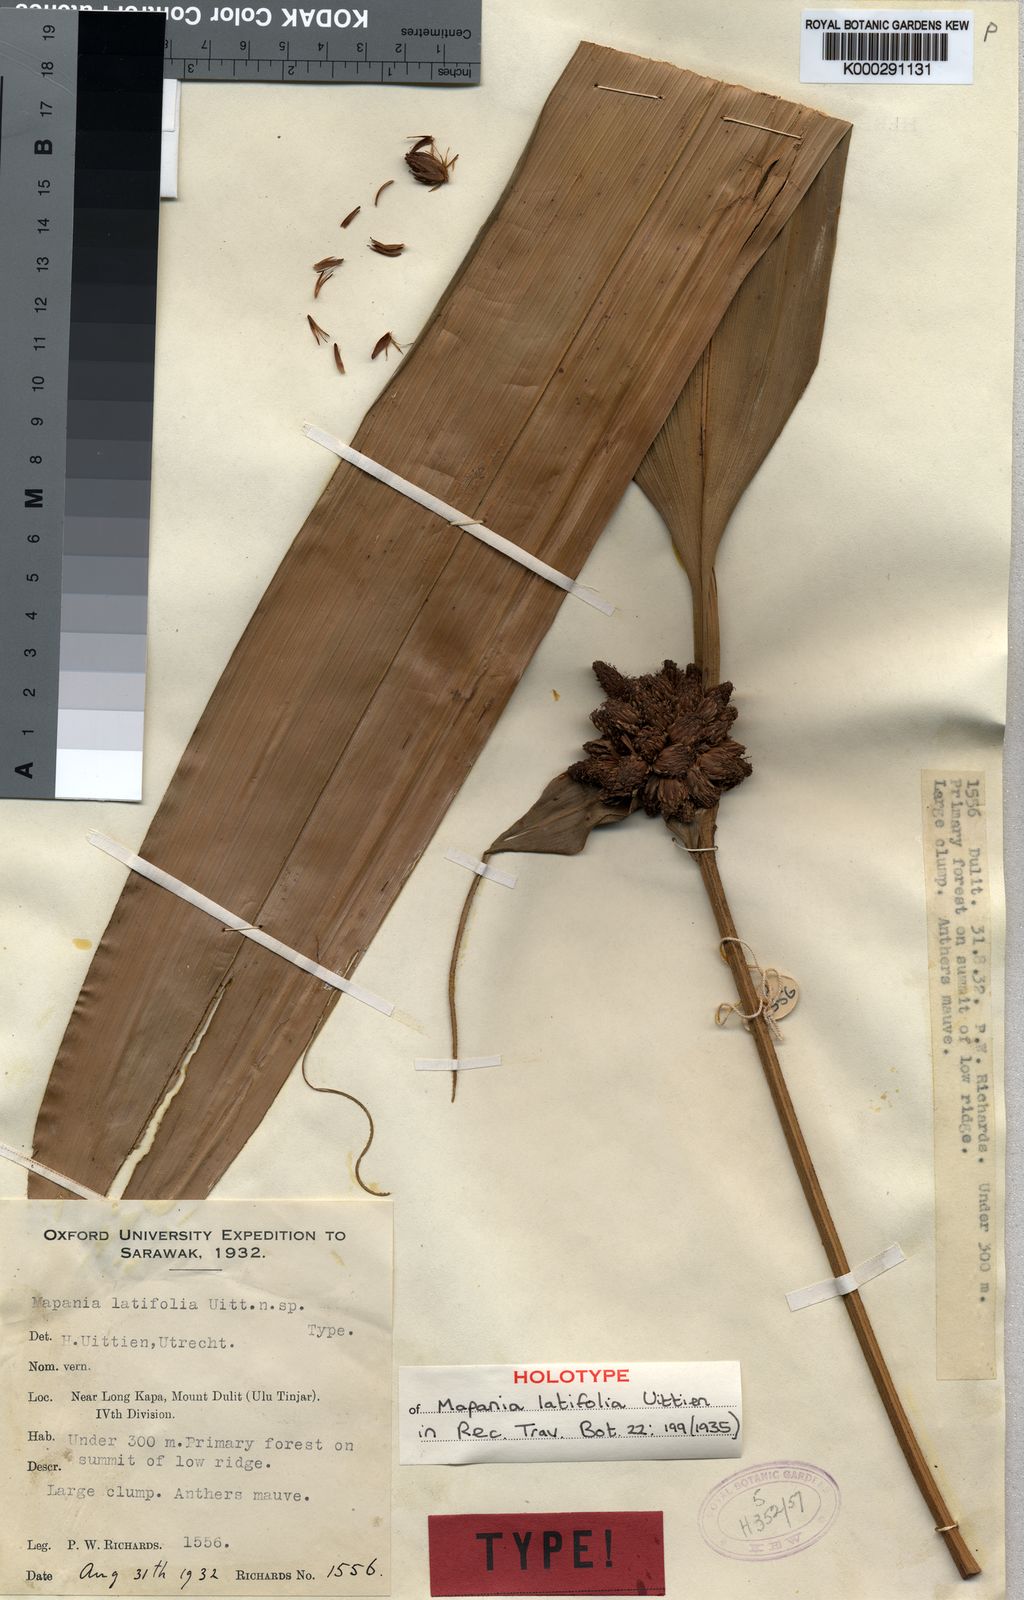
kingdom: Plantae
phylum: Tracheophyta
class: Liliopsida
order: Poales
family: Cyperaceae
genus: Mapania
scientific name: Mapania latifolia
